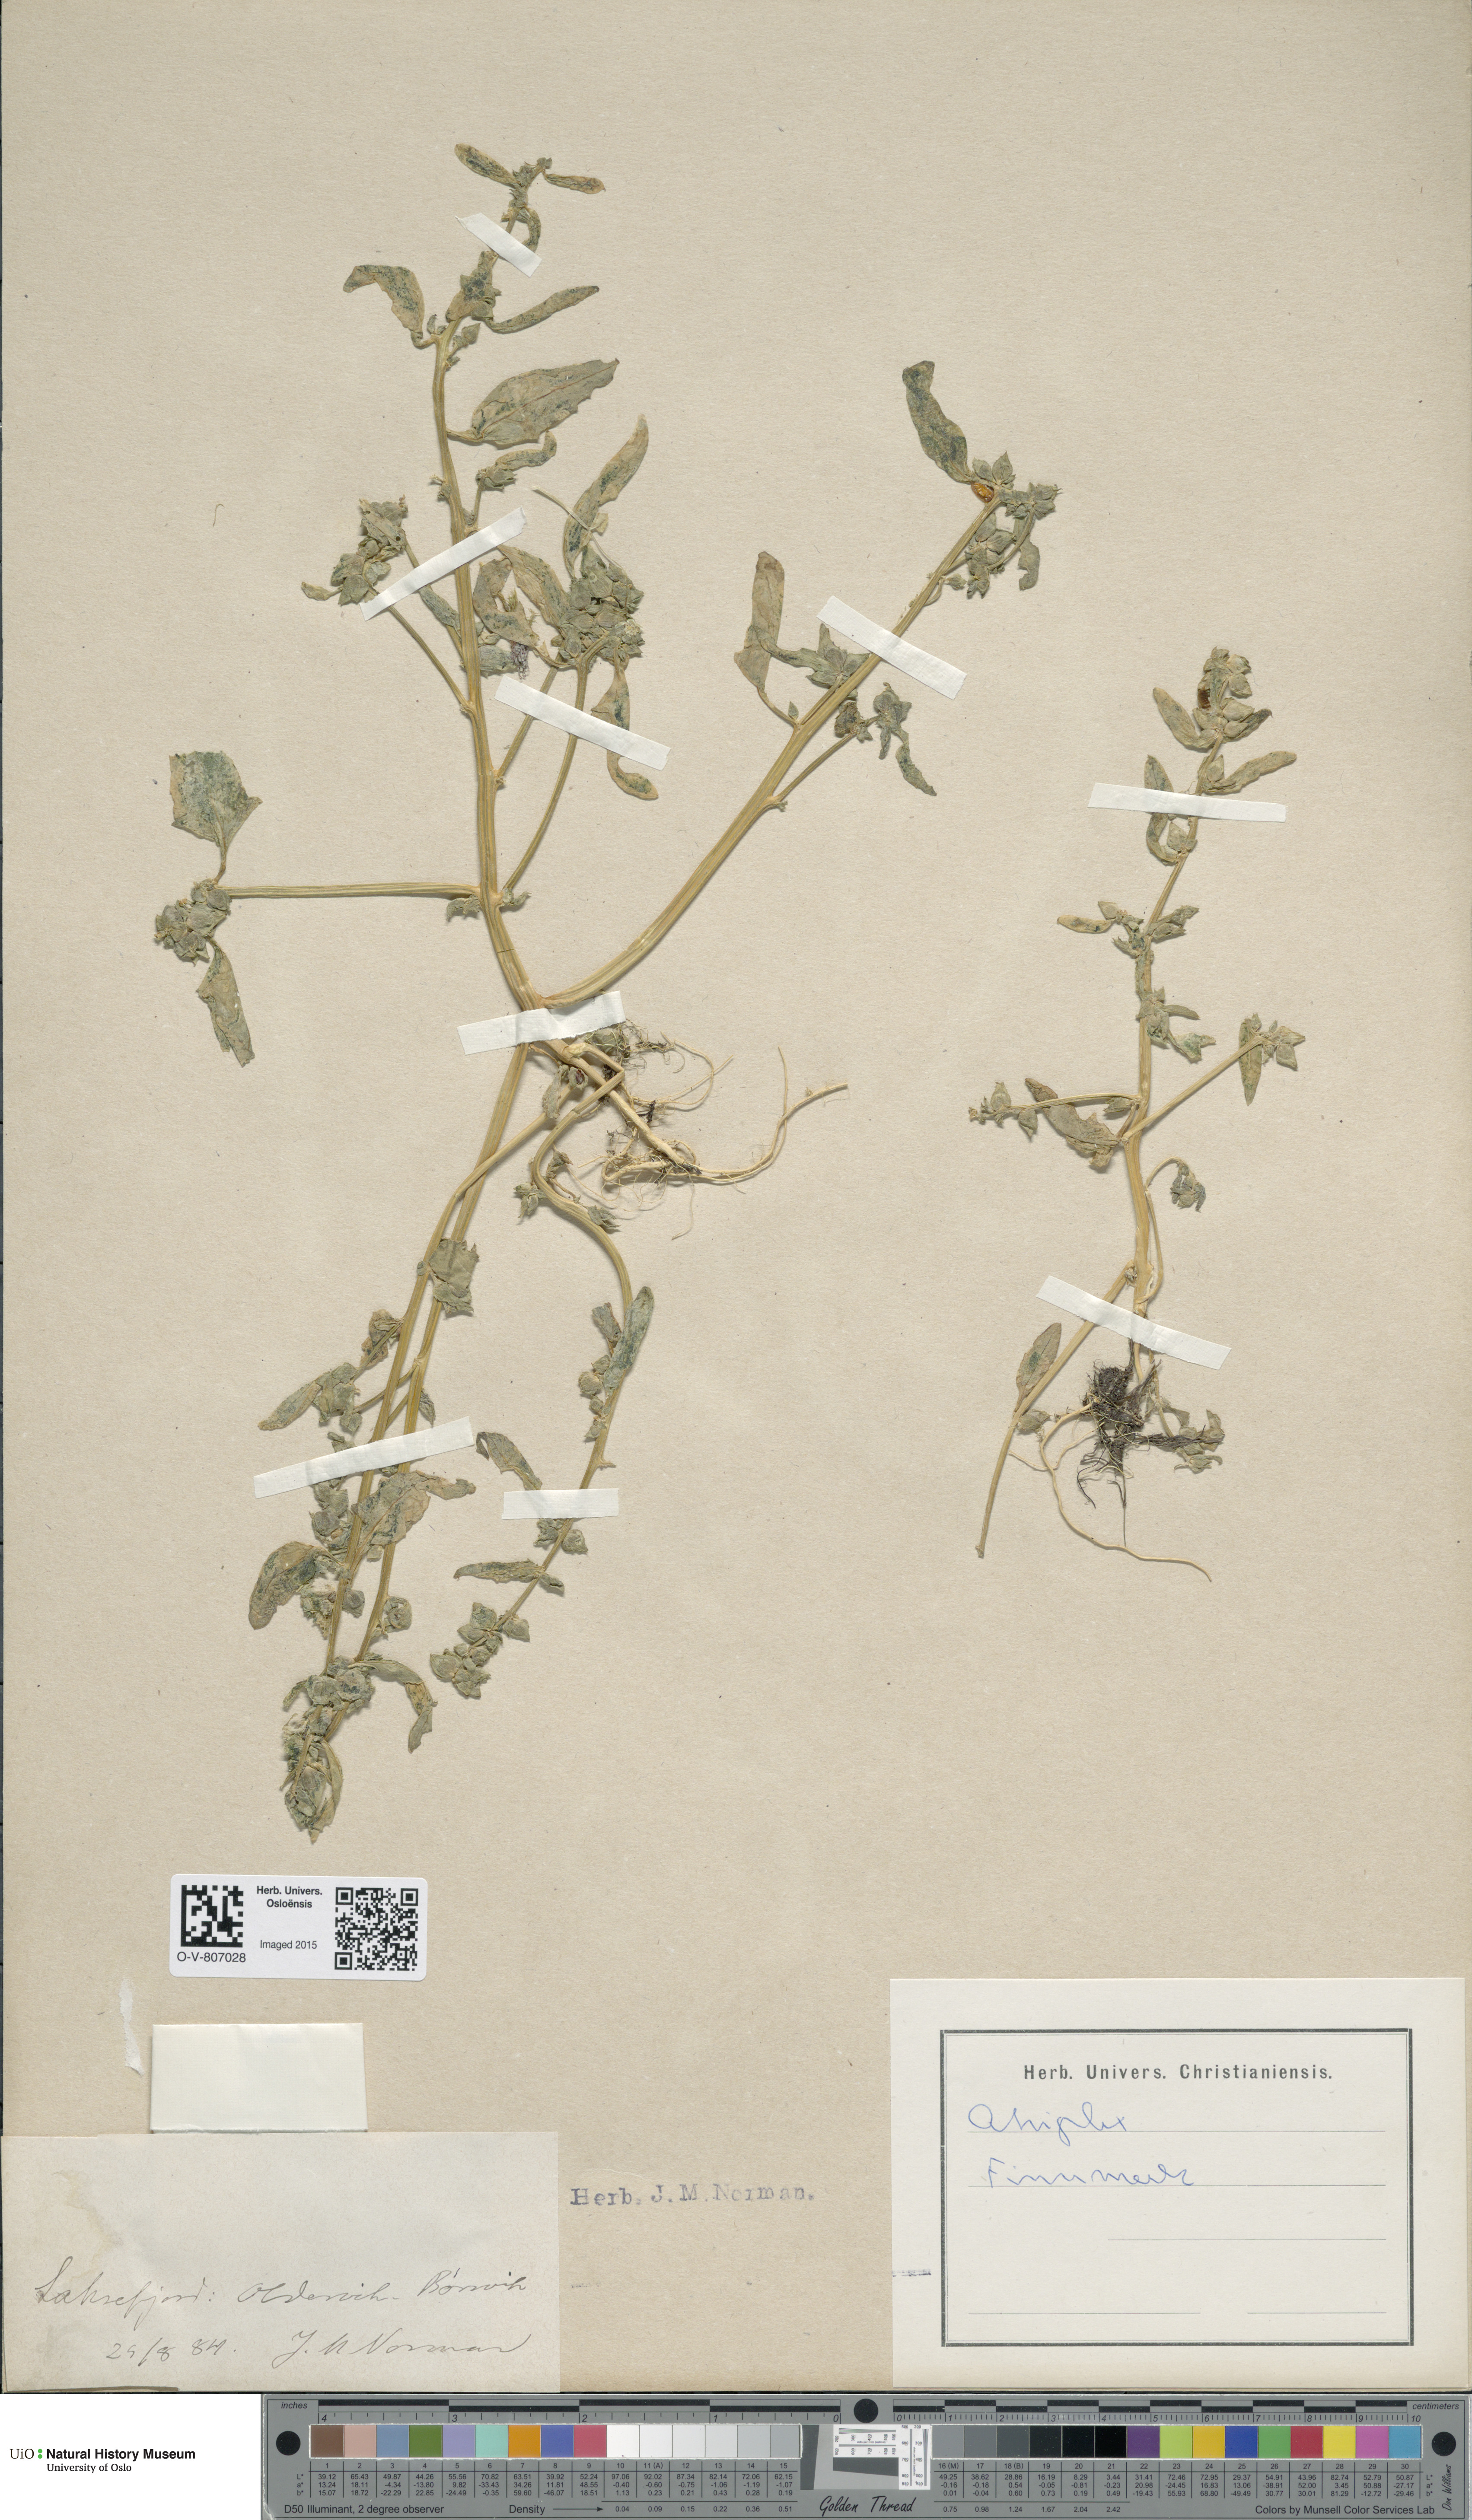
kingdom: Plantae
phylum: Tracheophyta
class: Magnoliopsida
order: Caryophyllales
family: Amaranthaceae
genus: Atriplex
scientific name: Atriplex
